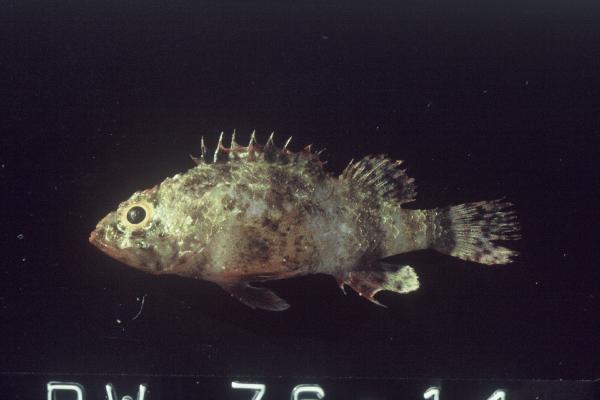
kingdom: Animalia
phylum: Chordata
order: Scorpaeniformes
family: Scorpaenidae
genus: Scorpaenodes
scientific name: Scorpaenodes hirsutus
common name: Hairy scorpionfish
